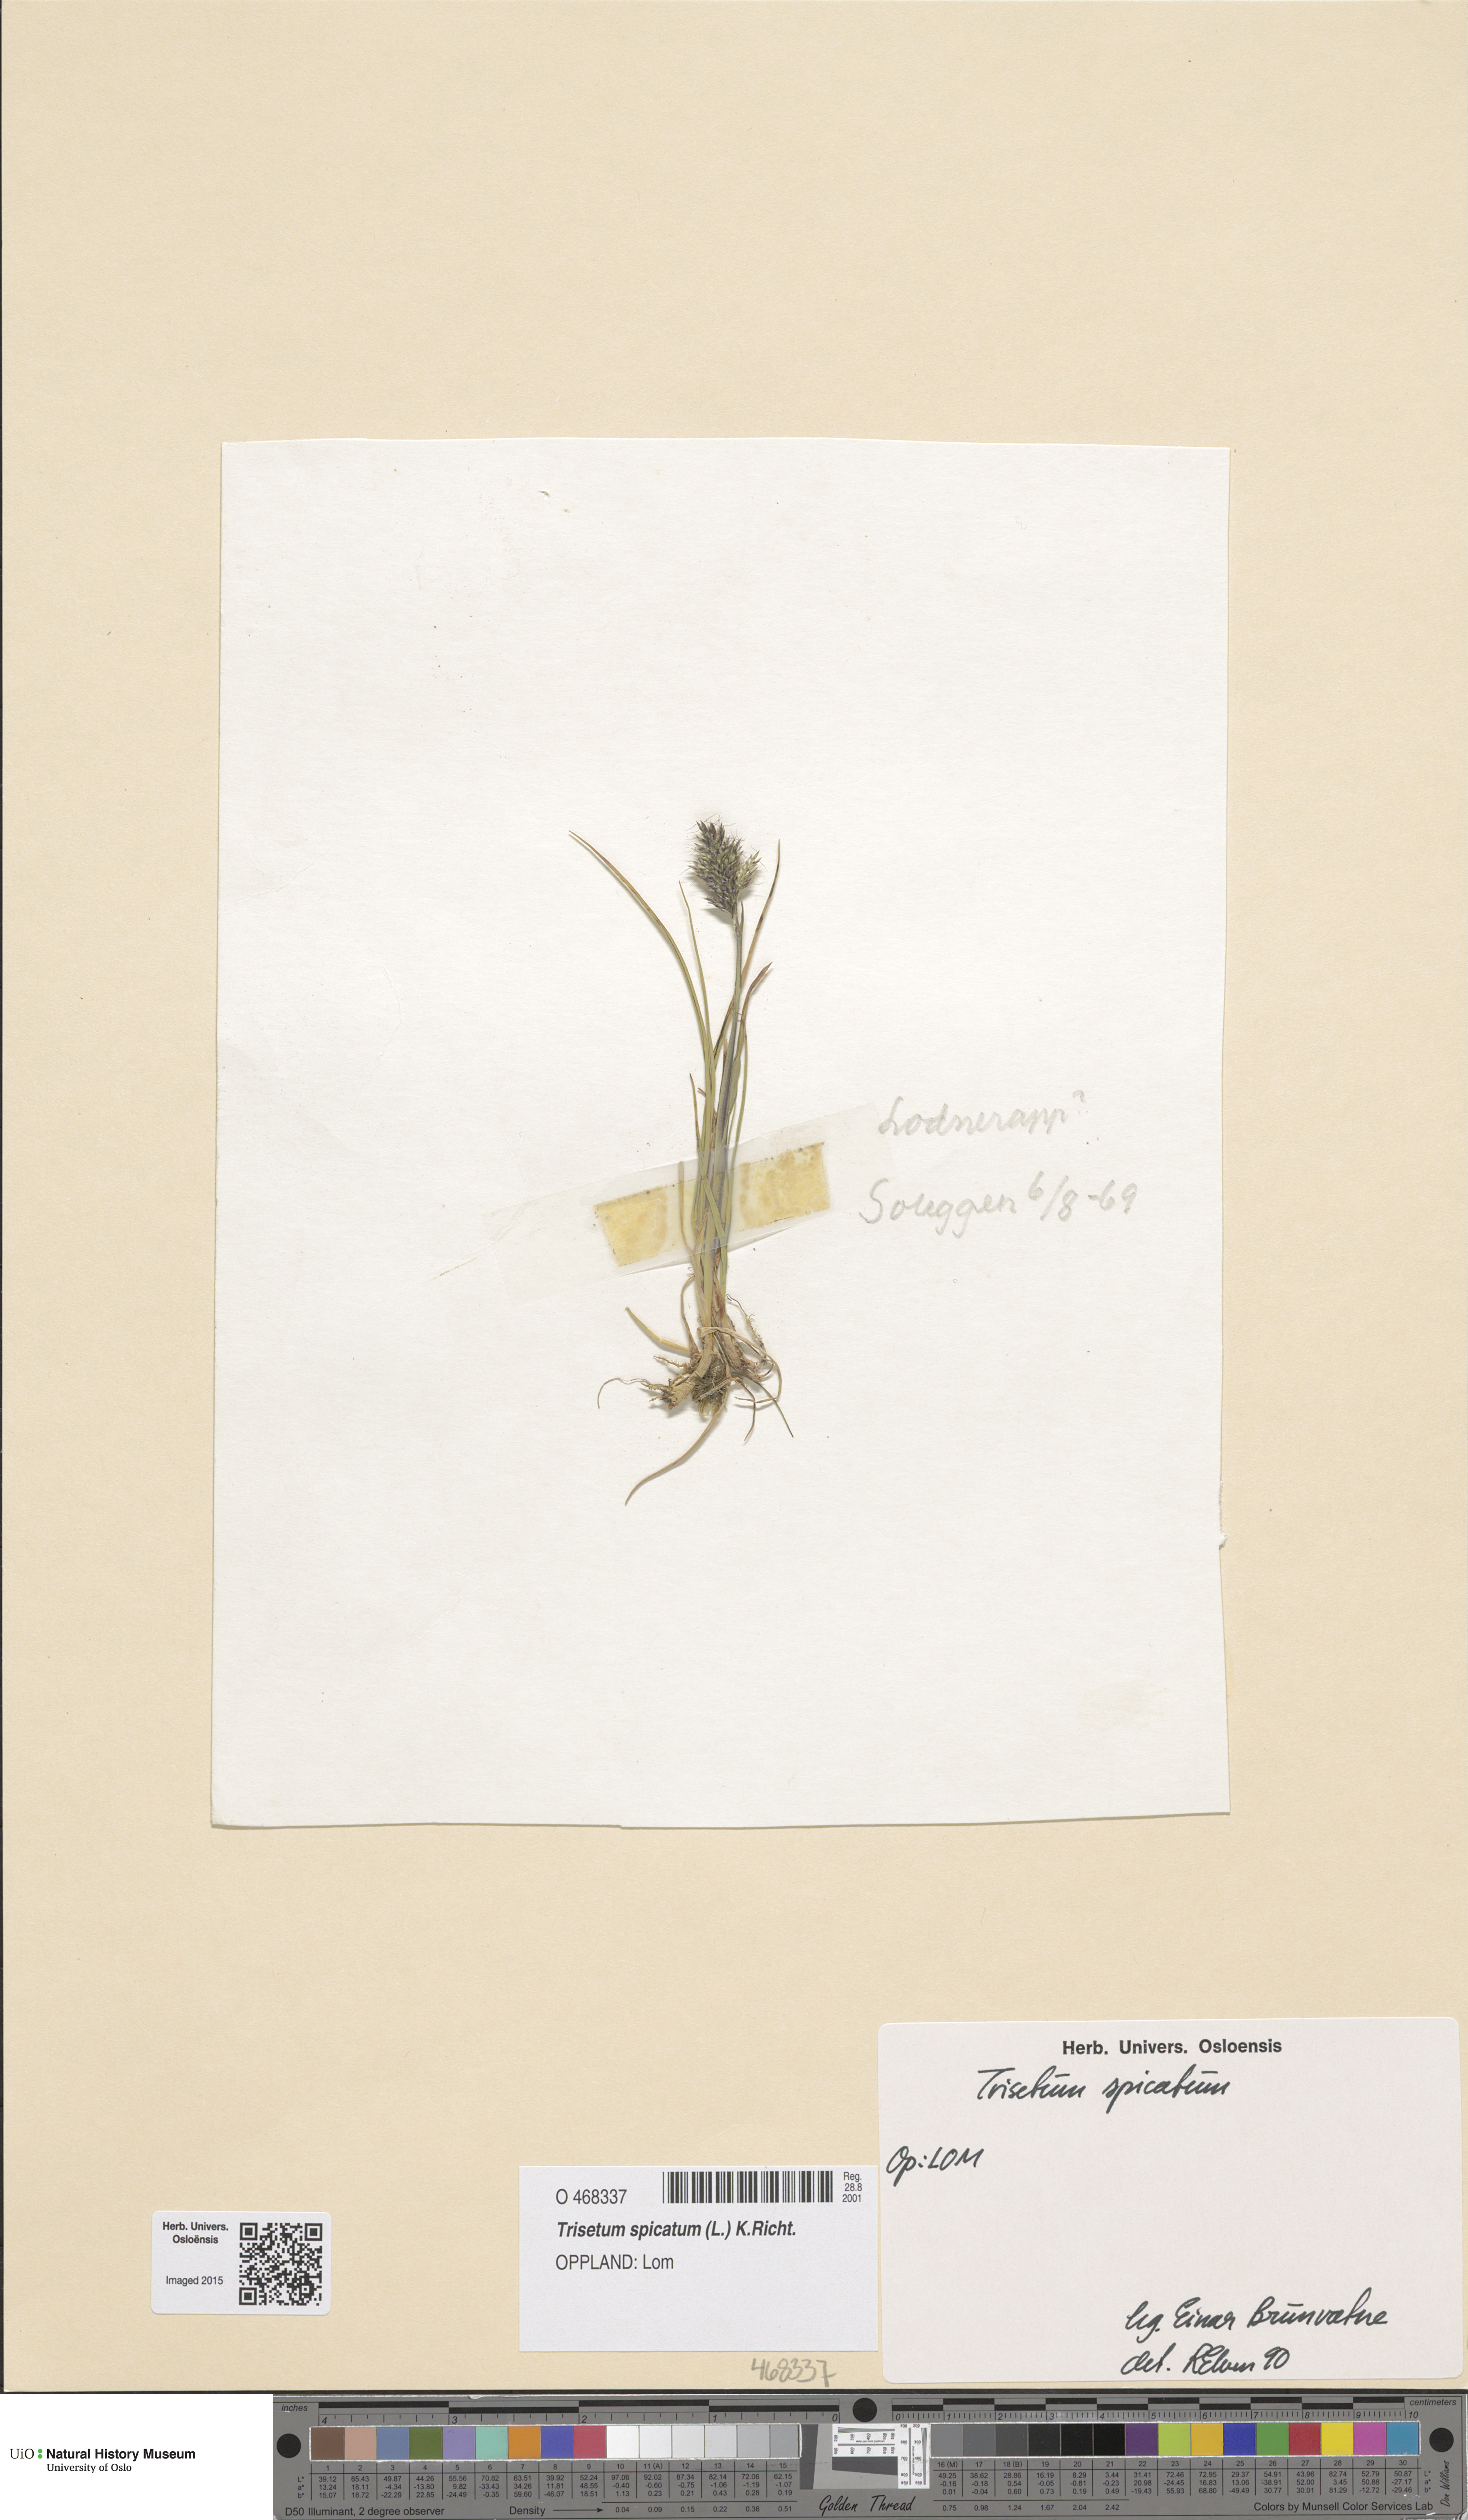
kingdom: Plantae
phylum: Tracheophyta
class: Liliopsida
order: Poales
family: Poaceae
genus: Koeleria
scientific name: Koeleria spicata
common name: Mountain trisetum
